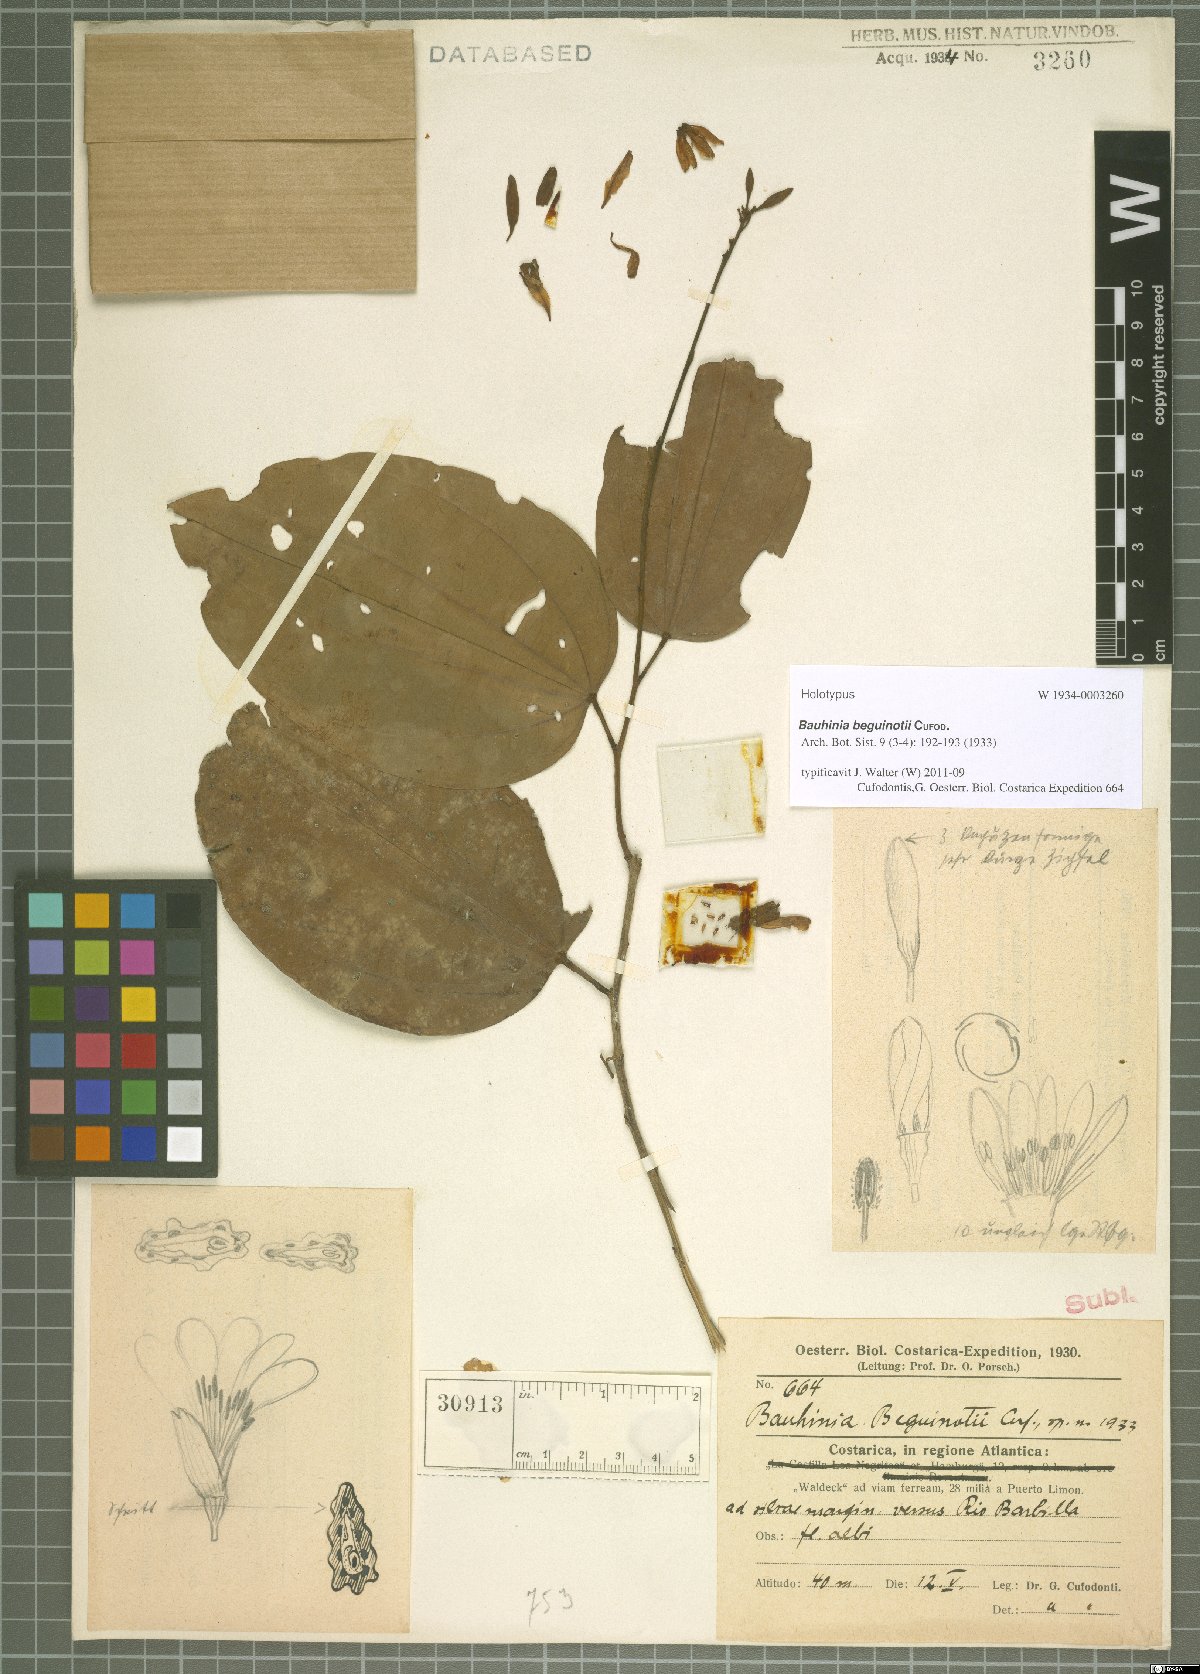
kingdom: Plantae
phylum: Tracheophyta
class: Magnoliopsida
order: Fabales
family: Fabaceae
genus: Bauhinia
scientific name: Bauhinia beguinotii
